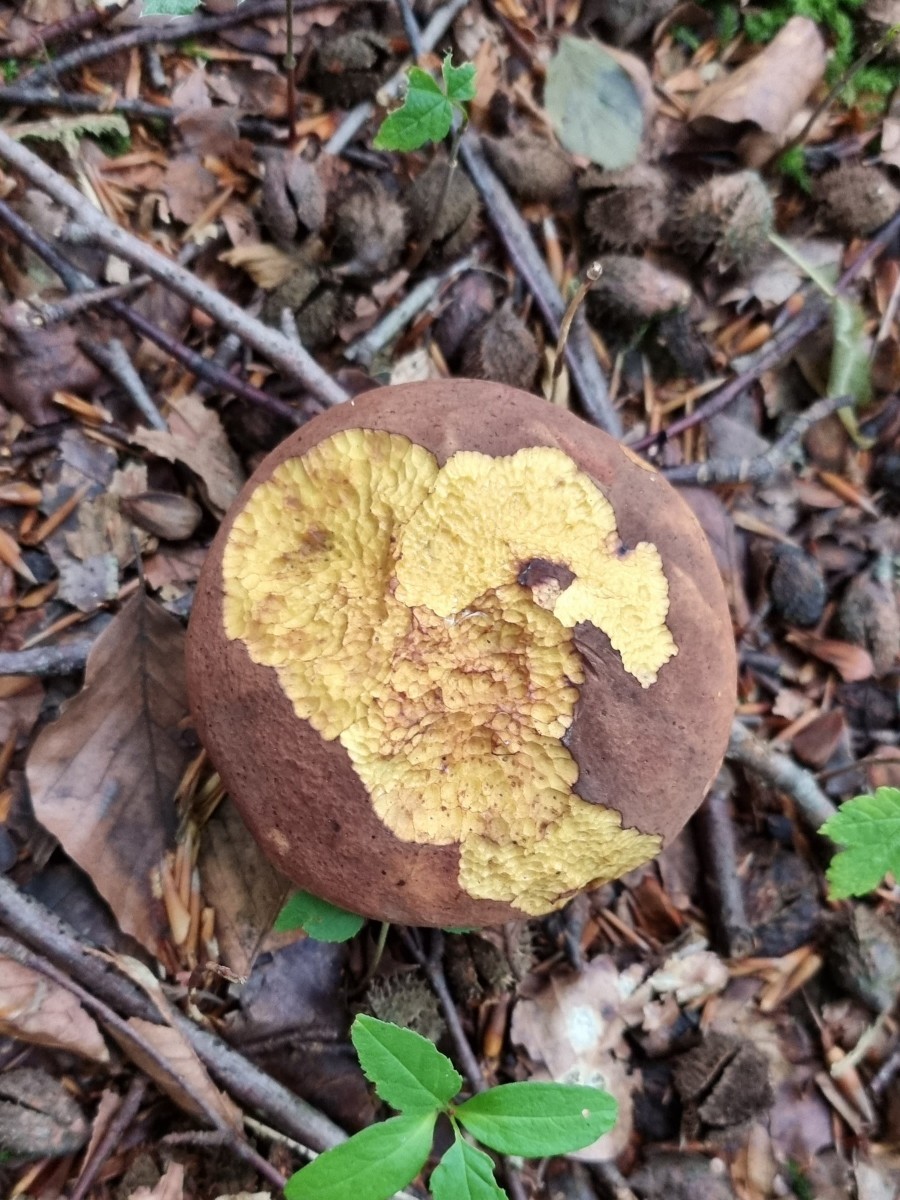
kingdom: Fungi
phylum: Basidiomycota
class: Agaricomycetes
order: Boletales
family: Boletaceae
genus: Neoboletus
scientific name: Neoboletus erythropus
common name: punktstokket indigorørhat
